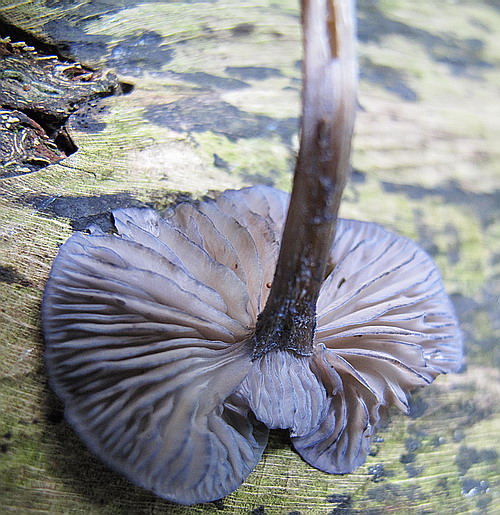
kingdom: Fungi
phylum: Basidiomycota
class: Agaricomycetes
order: Agaricales
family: Entolomataceae
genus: Entoloma
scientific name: Entoloma euchroum
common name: smuk rødblad
